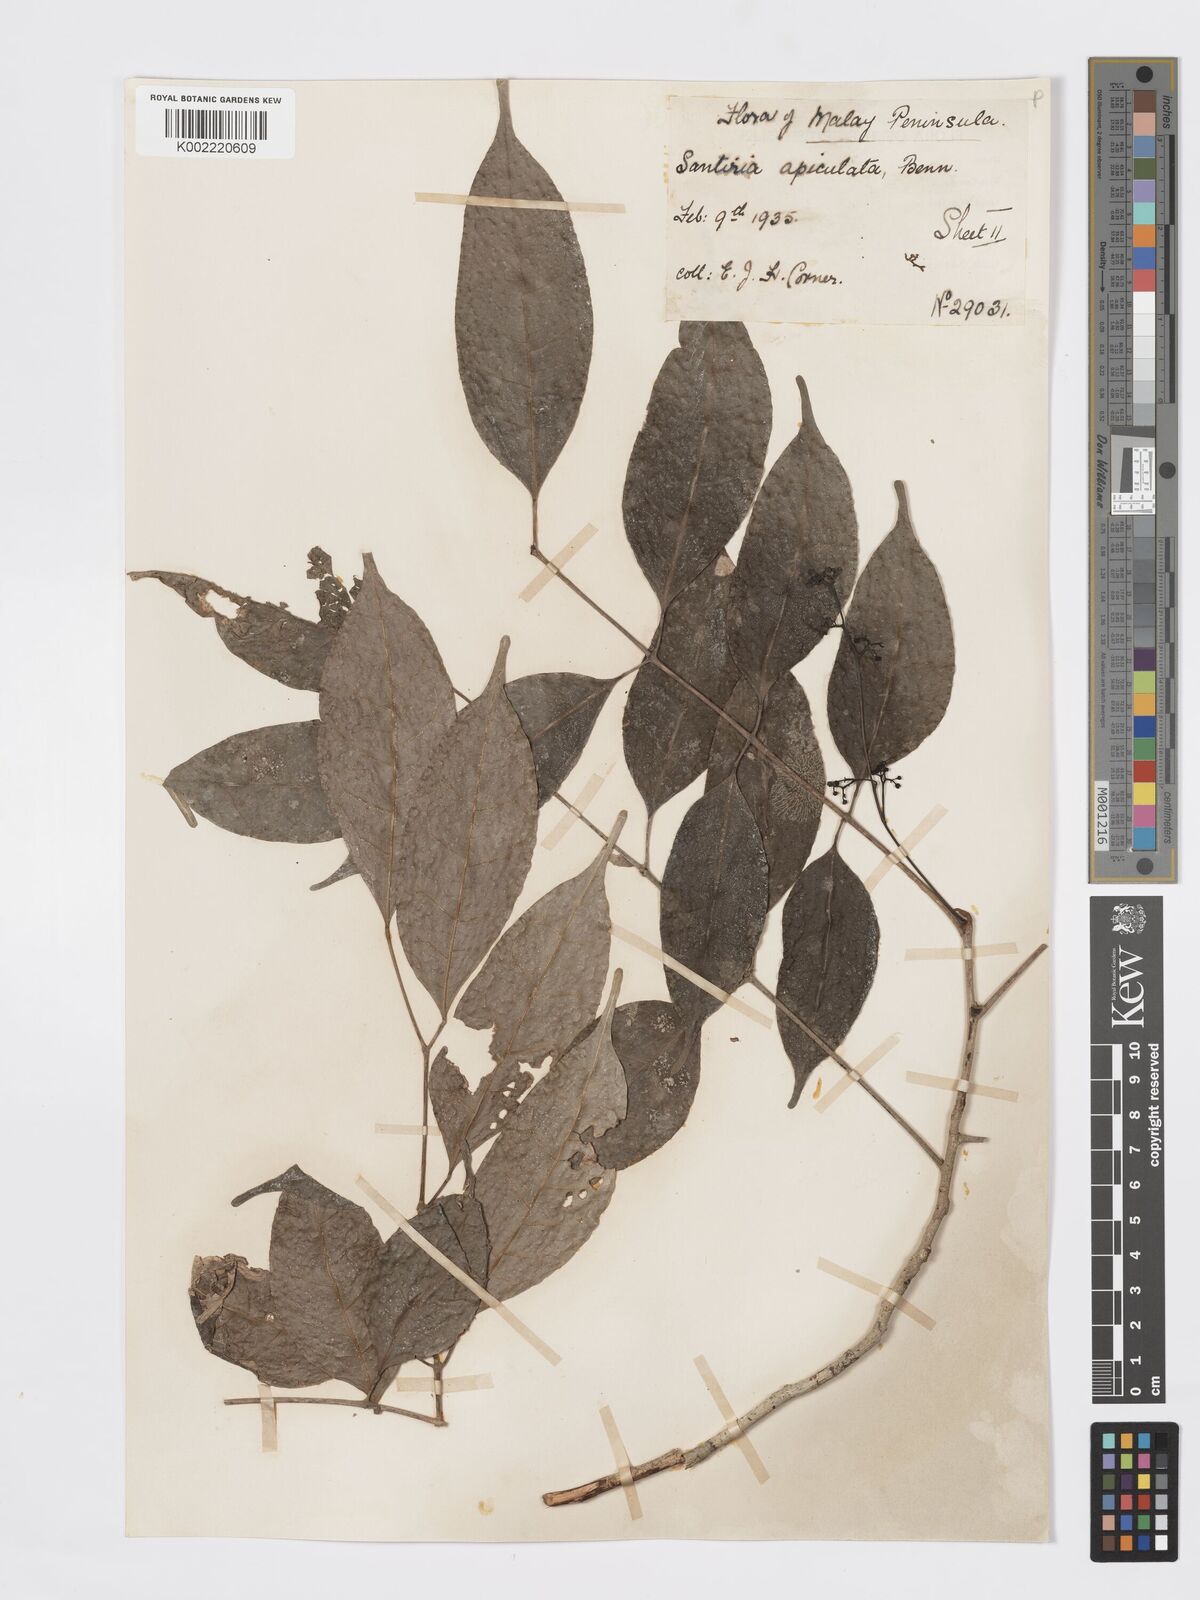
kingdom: Plantae
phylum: Tracheophyta
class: Magnoliopsida
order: Sapindales
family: Burseraceae
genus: Santiria
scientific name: Santiria apiculata
